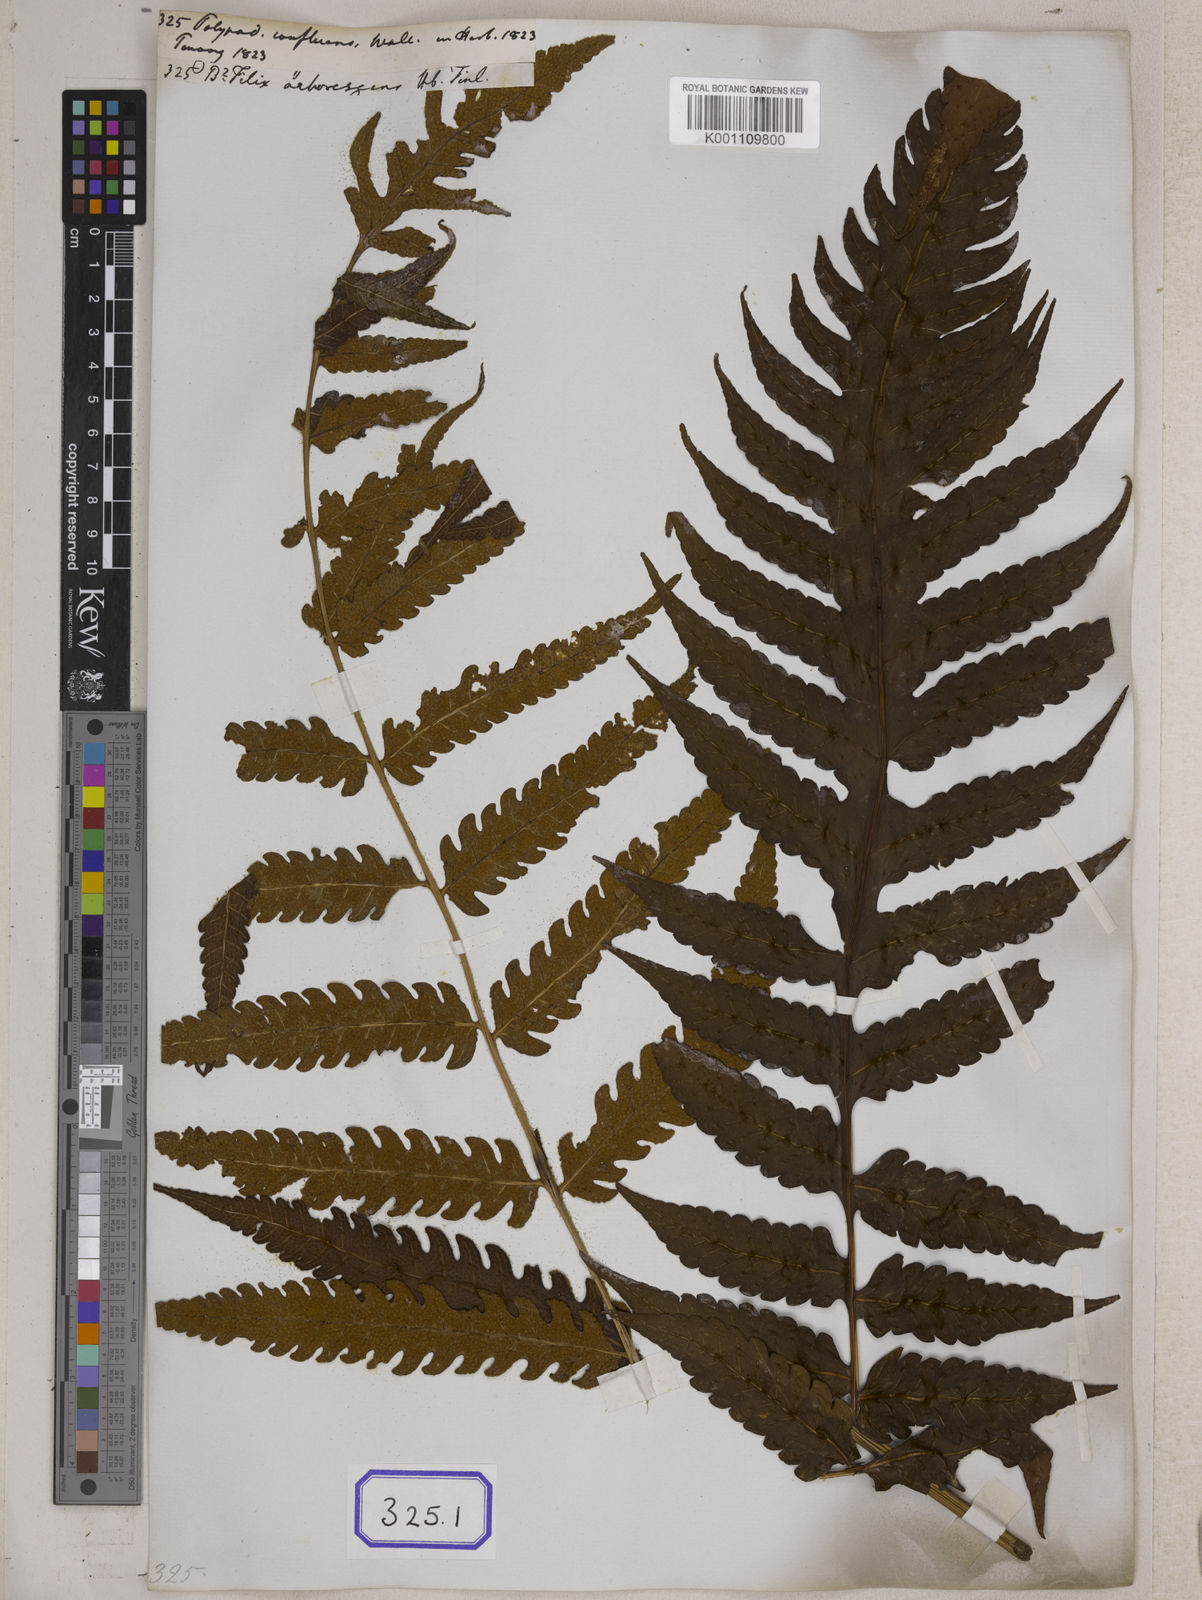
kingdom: Plantae
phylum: Tracheophyta
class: Polypodiopsida
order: Polypodiales
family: Dryopteridaceae
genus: Pleocnemia
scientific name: Pleocnemia irregularis
